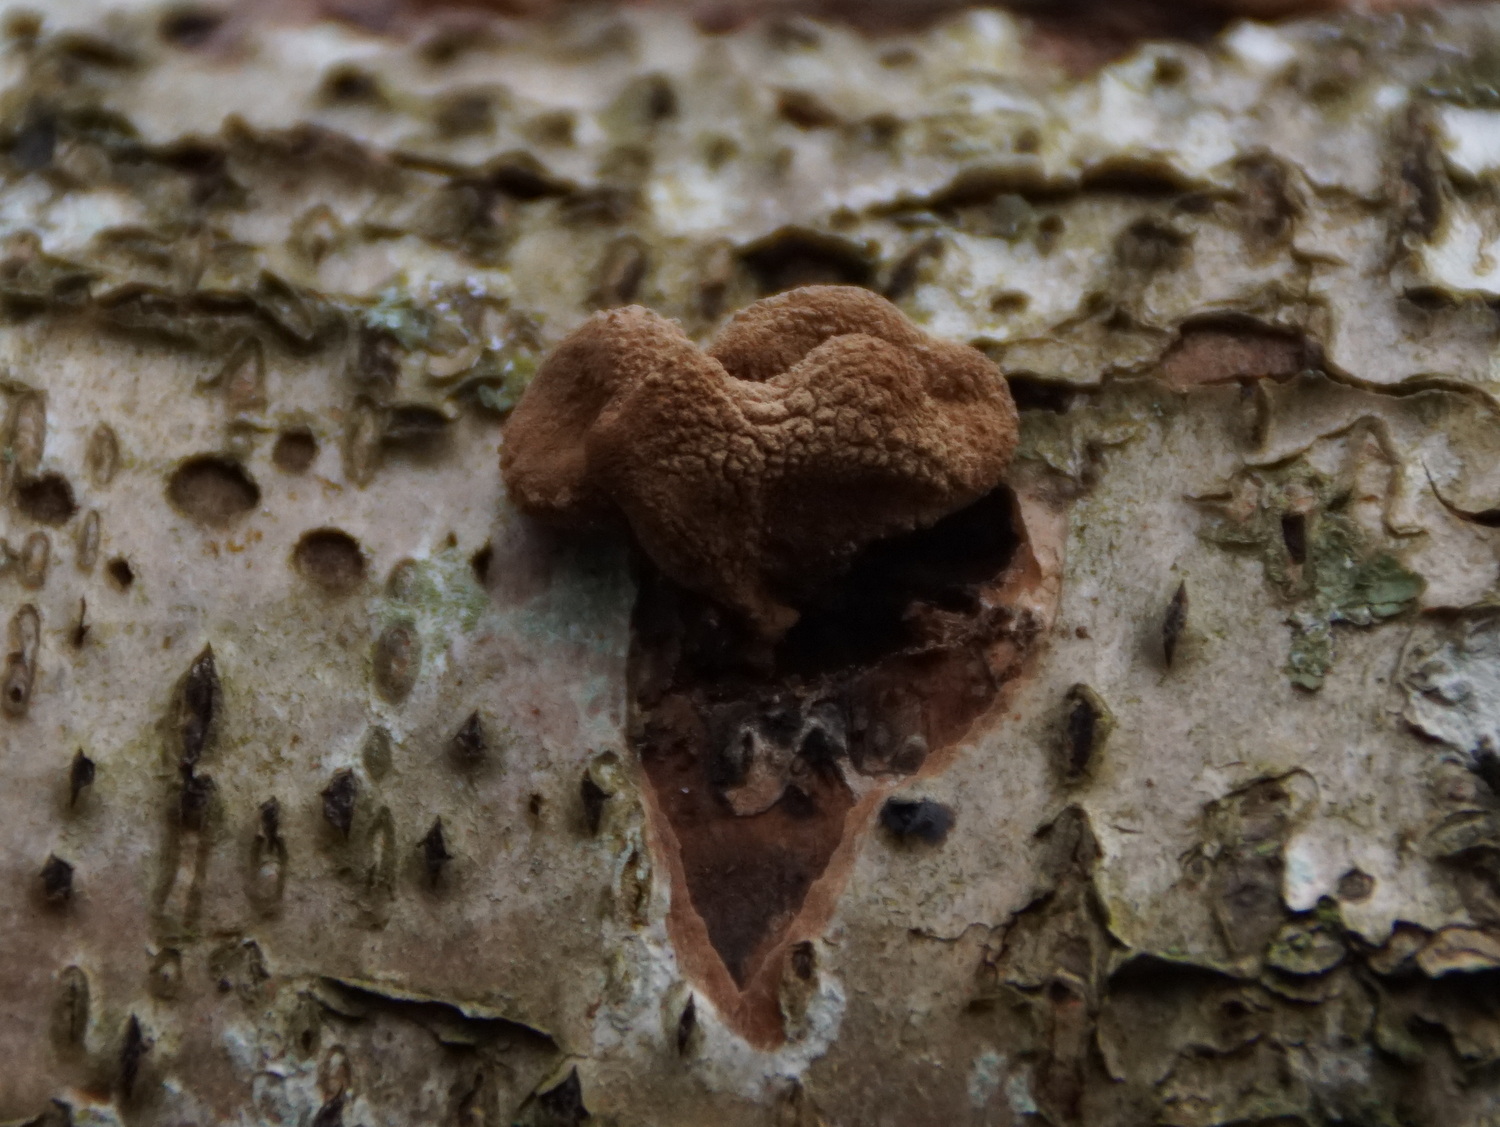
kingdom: Fungi
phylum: Ascomycota
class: Leotiomycetes
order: Helotiales
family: Cenangiaceae
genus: Encoelia
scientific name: Encoelia furfuracea
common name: hassel-læderskive
